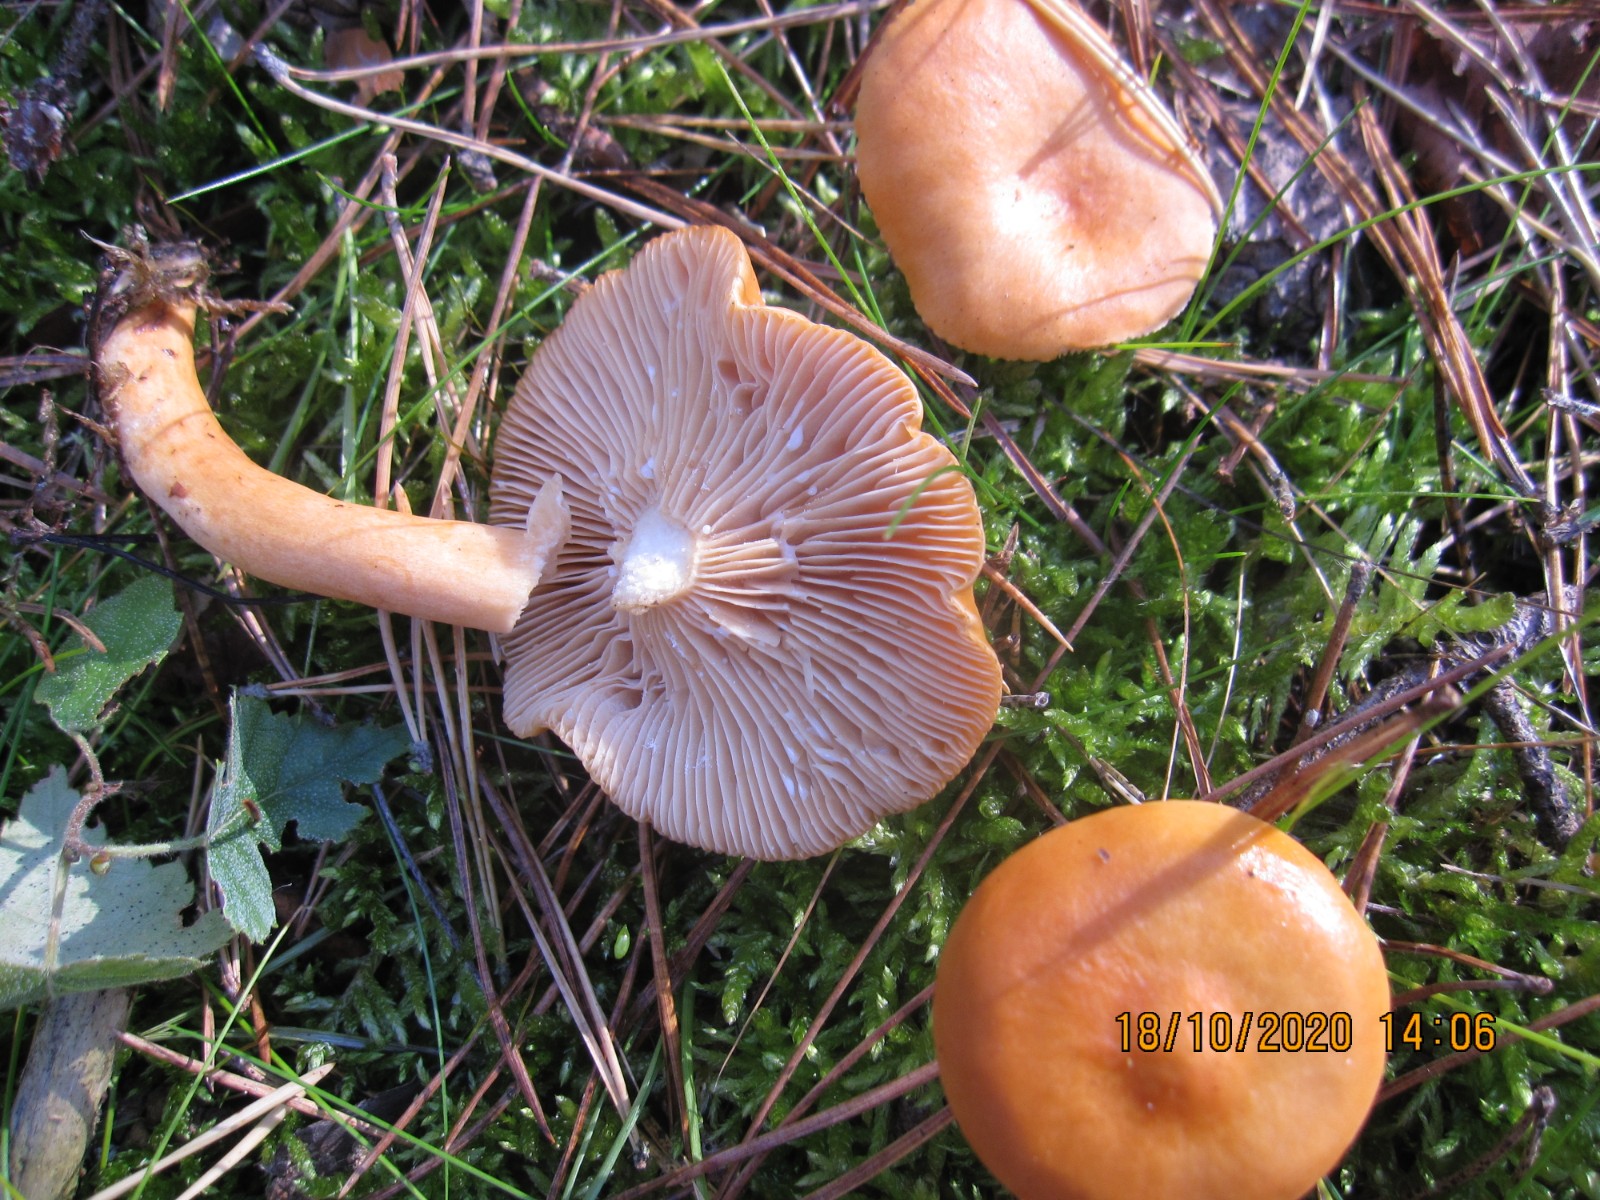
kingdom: Fungi
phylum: Basidiomycota
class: Agaricomycetes
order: Russulales
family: Russulaceae
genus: Lactarius
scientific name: Lactarius aurantiacus
